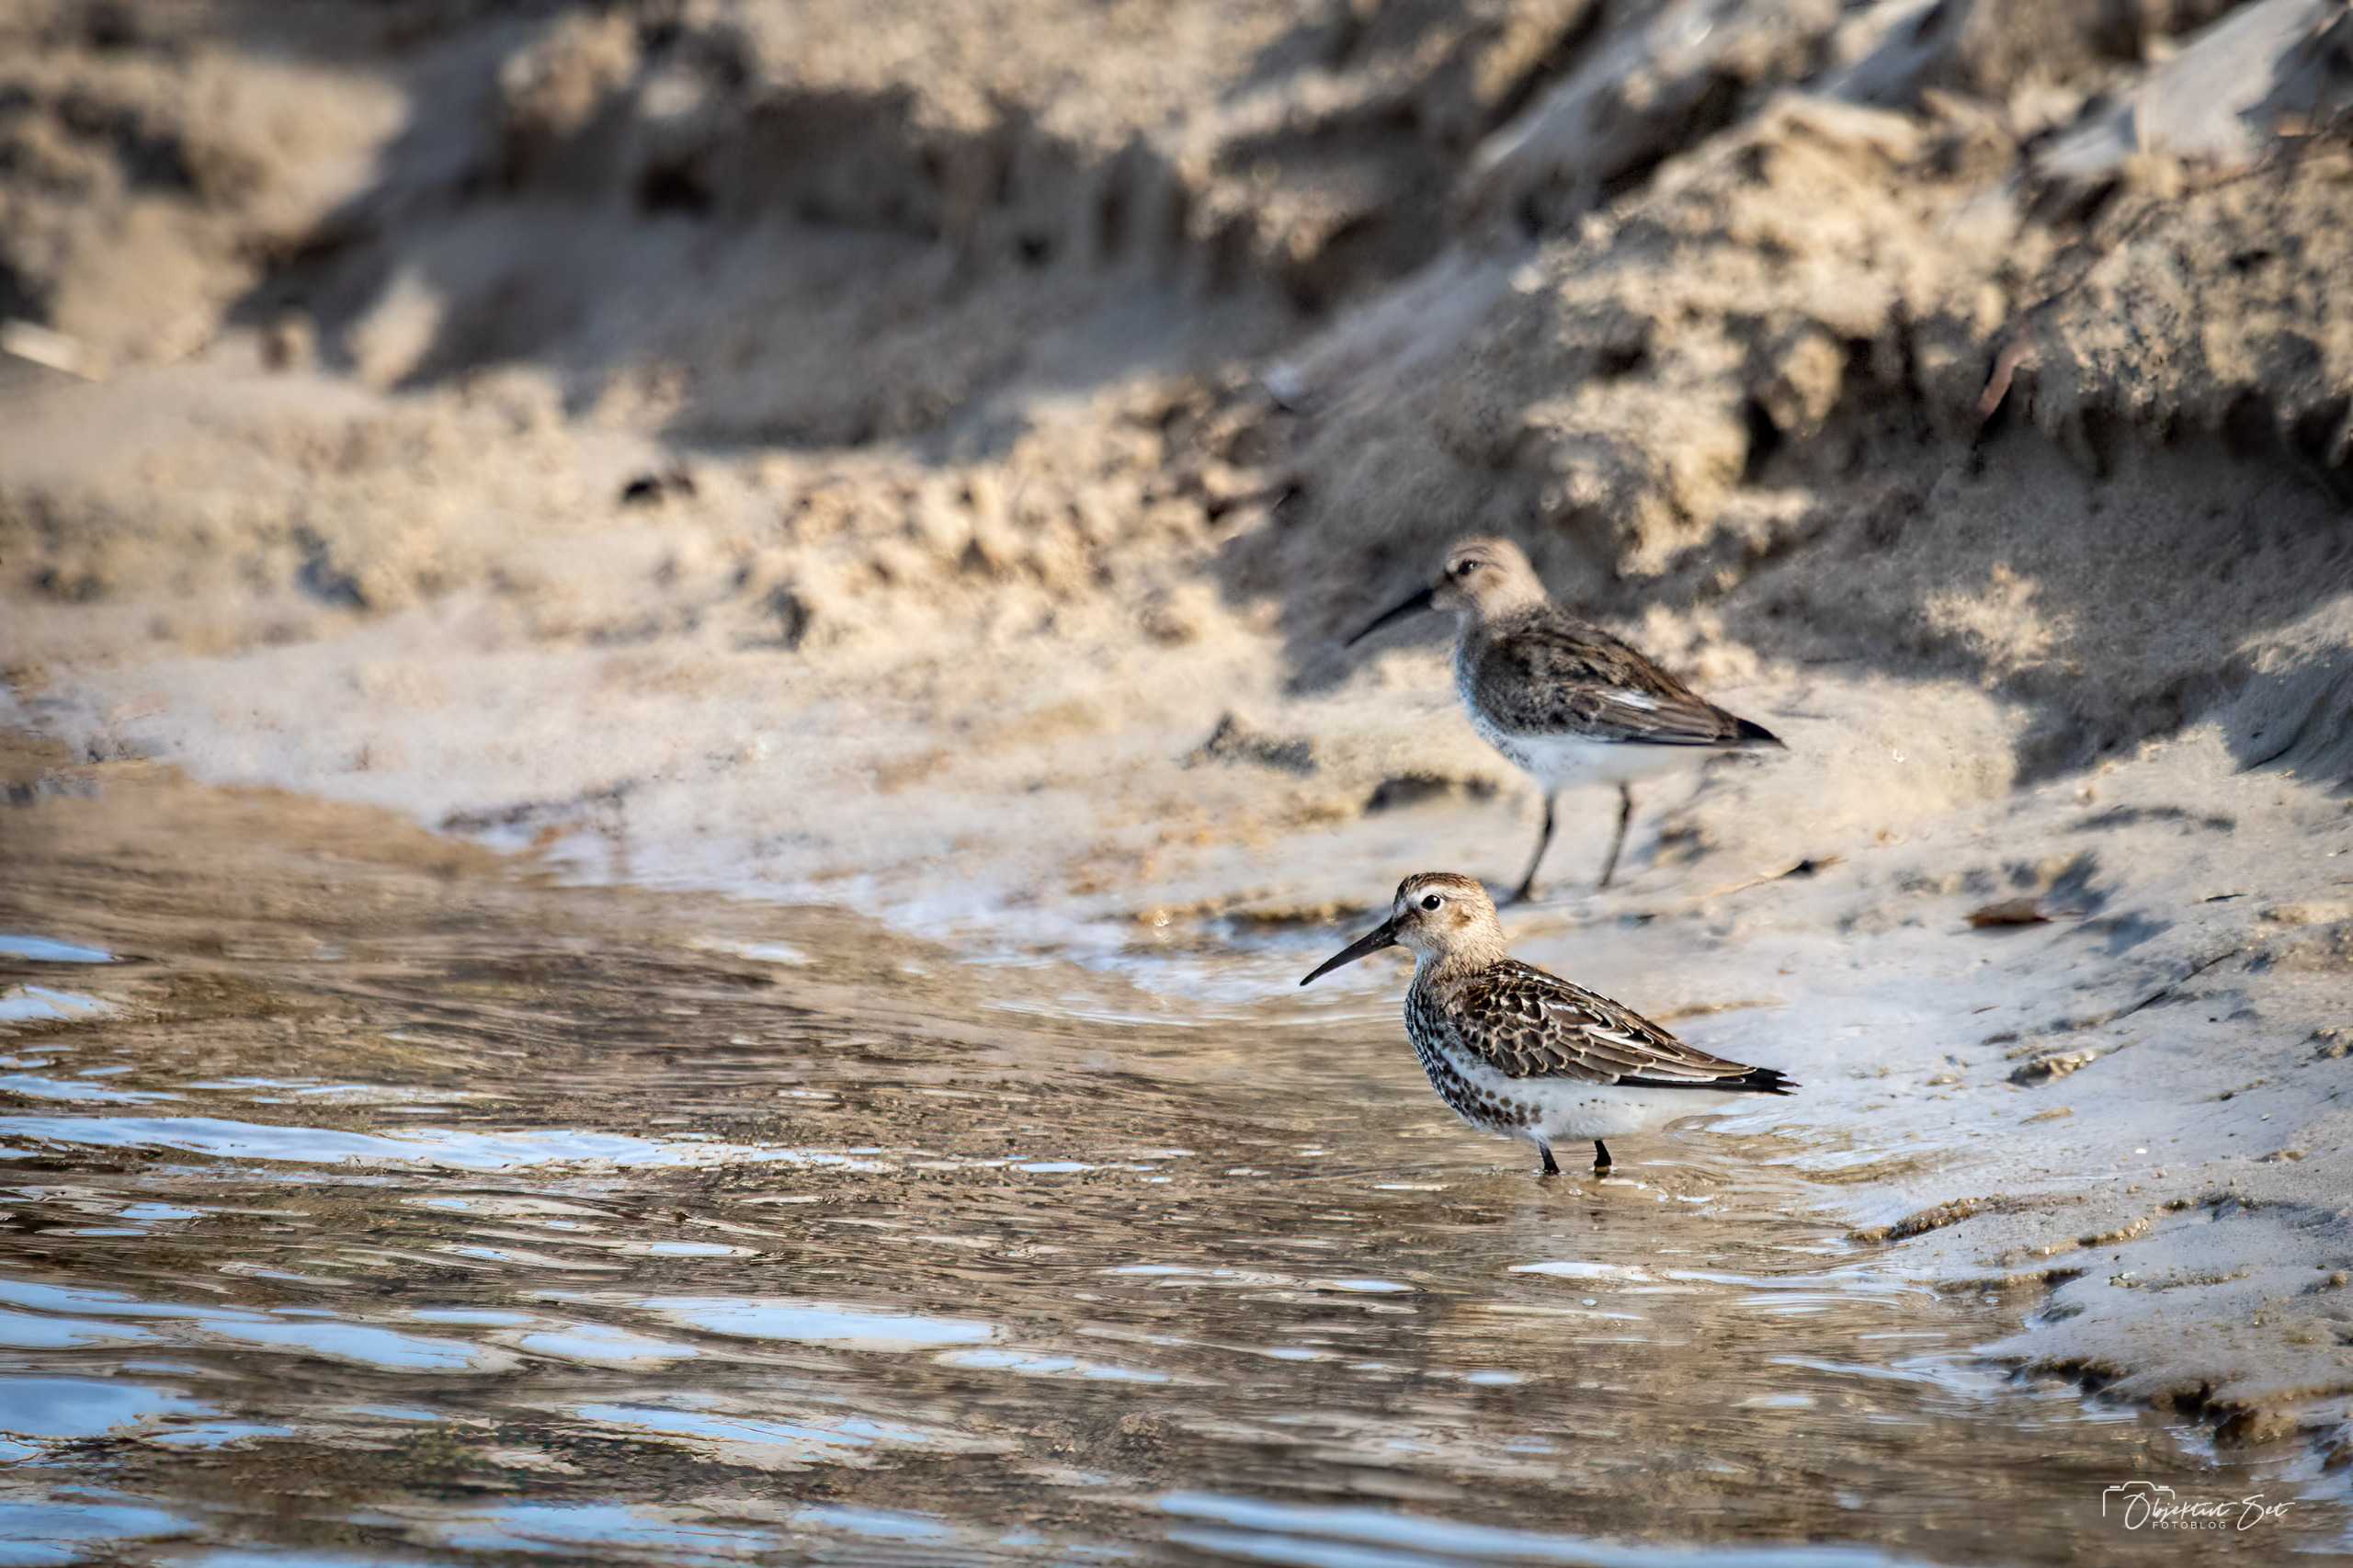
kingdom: Animalia
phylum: Chordata
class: Aves
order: Charadriiformes
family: Scolopacidae
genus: Calidris
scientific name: Calidris alpina
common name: Almindelig ryle
